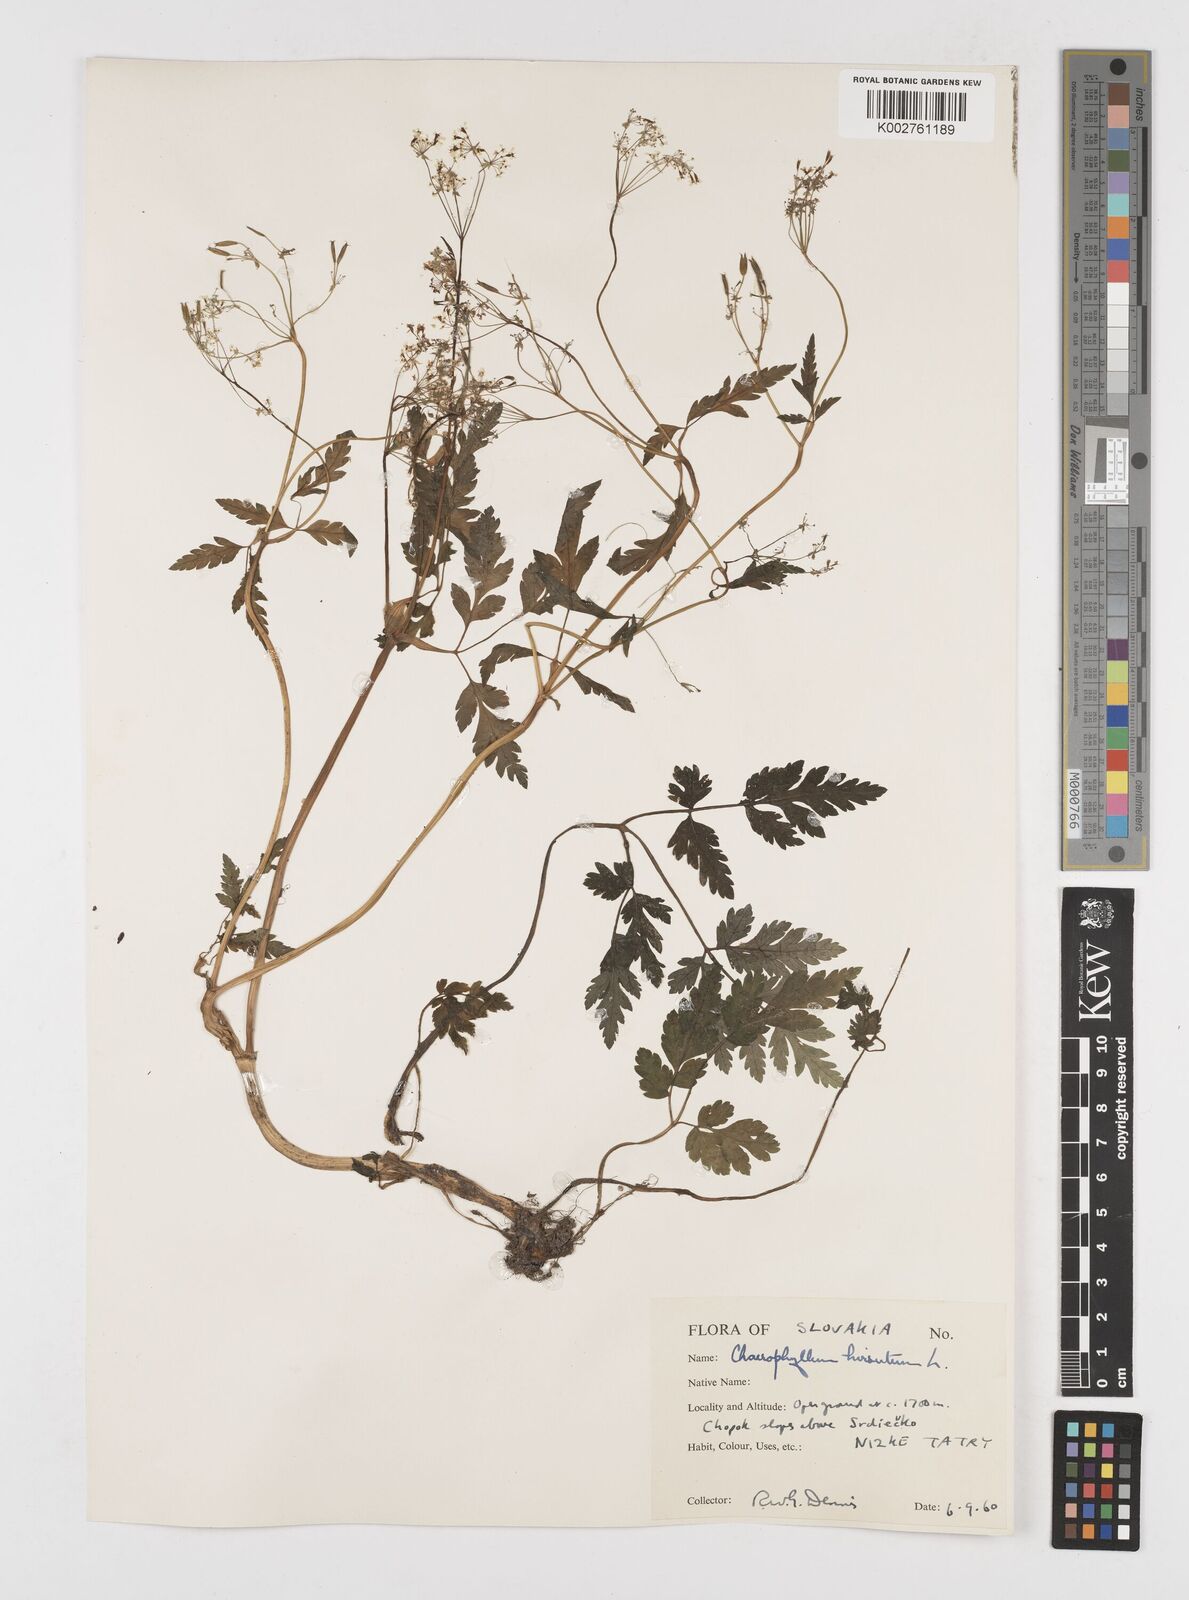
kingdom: Plantae
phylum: Tracheophyta
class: Magnoliopsida
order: Apiales
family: Apiaceae
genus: Chaerophyllum
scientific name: Chaerophyllum hirsutum
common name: Hairy chervil
